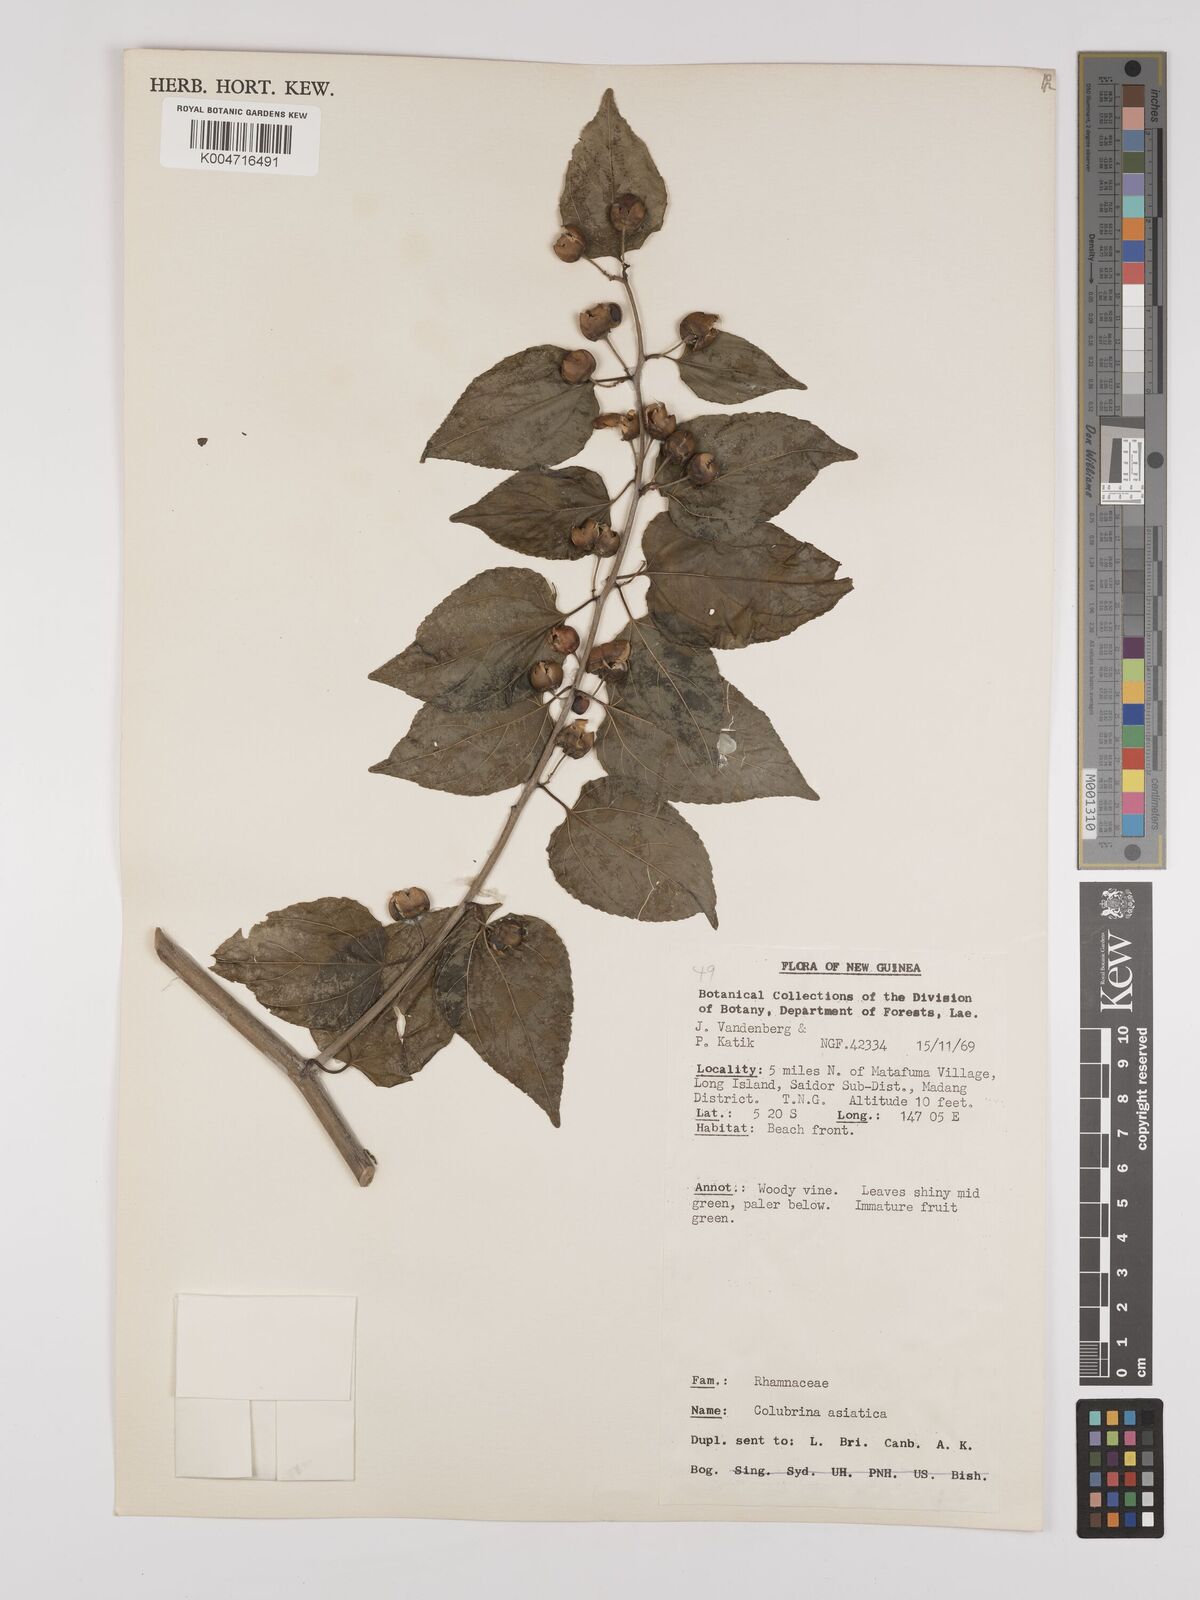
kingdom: Plantae
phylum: Tracheophyta
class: Magnoliopsida
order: Rosales
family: Rhamnaceae
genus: Colubrina
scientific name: Colubrina asiatica
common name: Asian nakedwood
